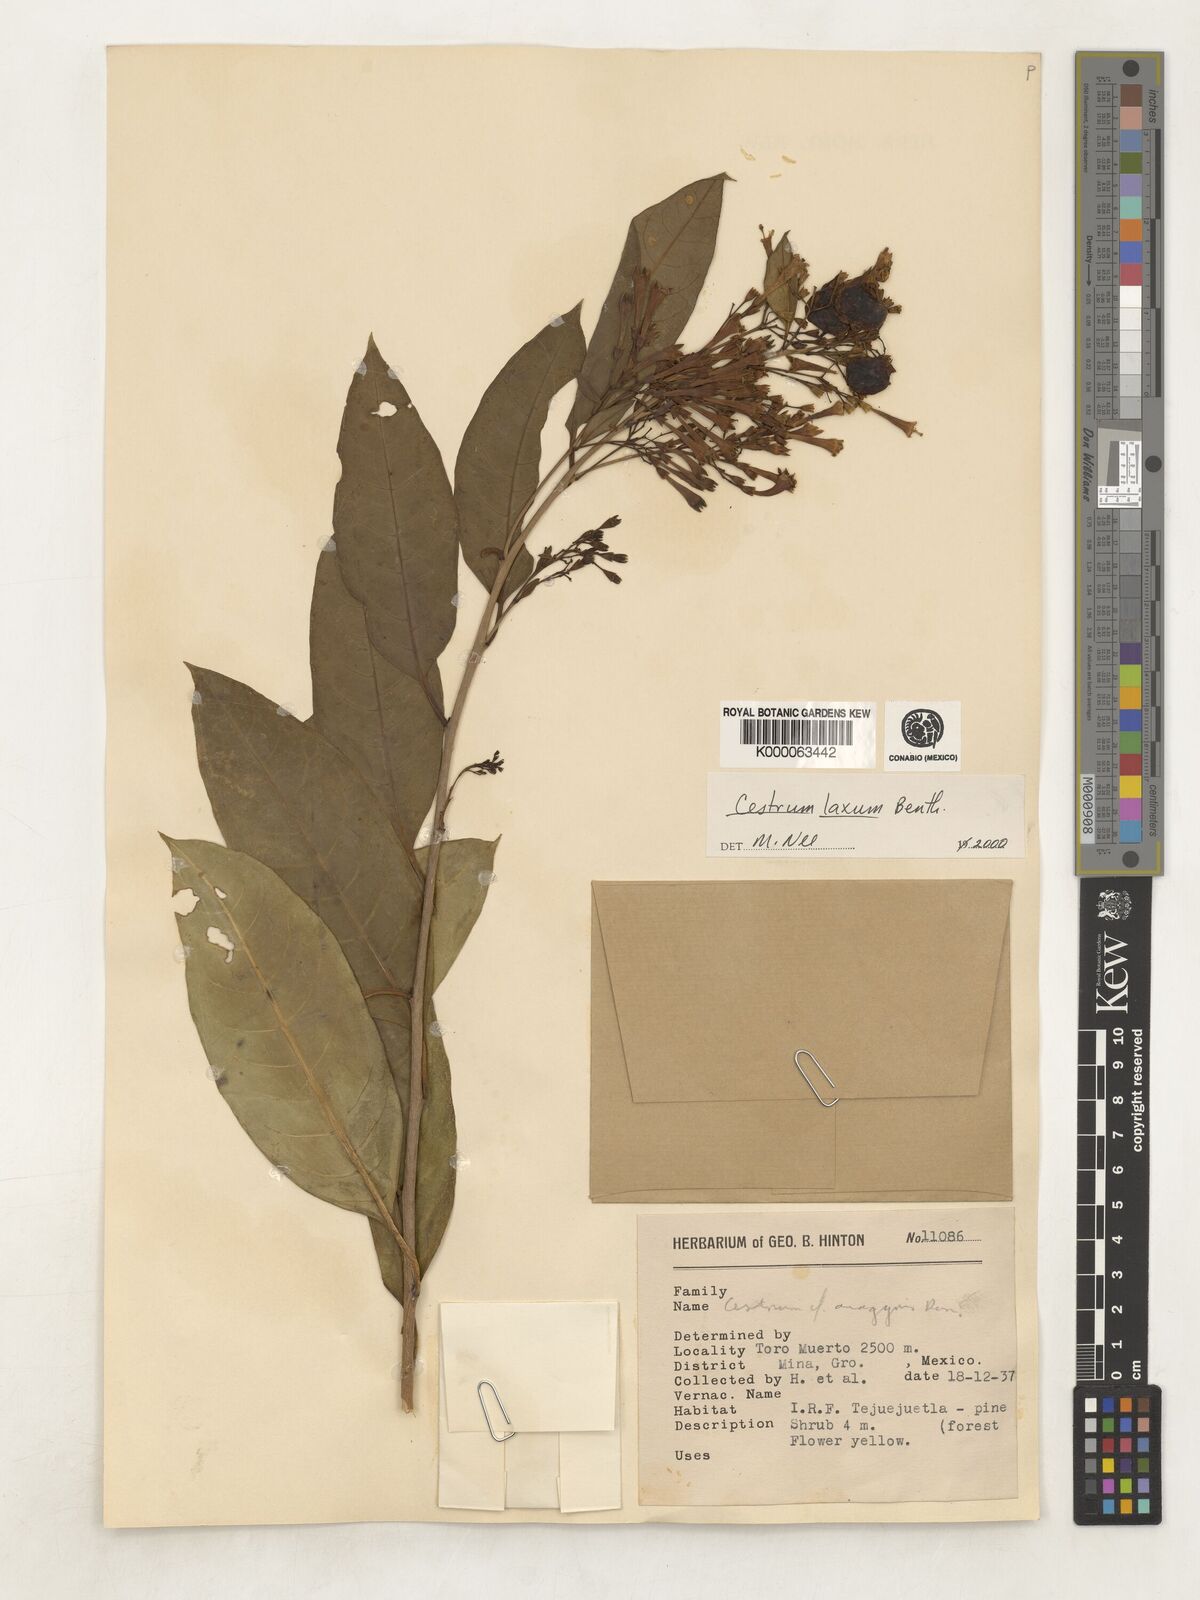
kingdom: Plantae
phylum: Tracheophyta
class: Magnoliopsida
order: Solanales
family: Solanaceae
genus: Cestrum
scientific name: Cestrum laxum
